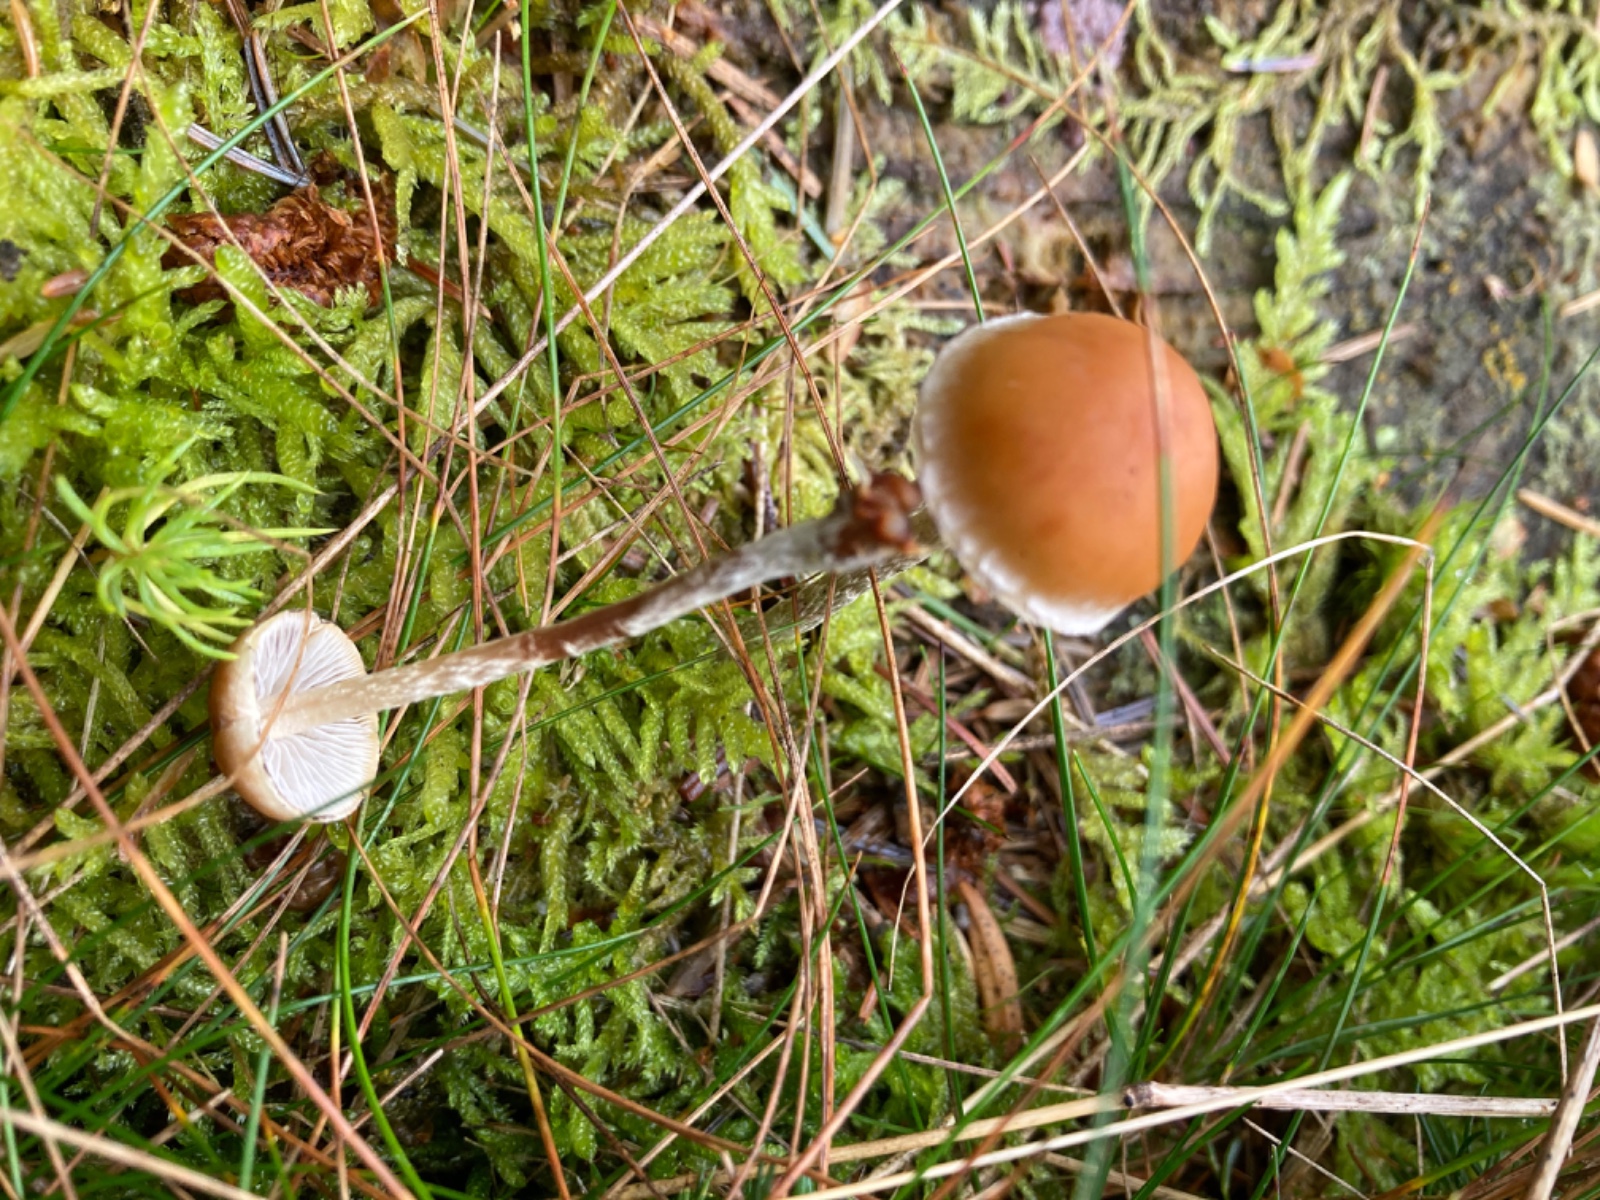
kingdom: Fungi
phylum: Basidiomycota
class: Agaricomycetes
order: Agaricales
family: Strophariaceae
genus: Hypholoma
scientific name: Hypholoma marginatum
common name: enlig svovlhat
